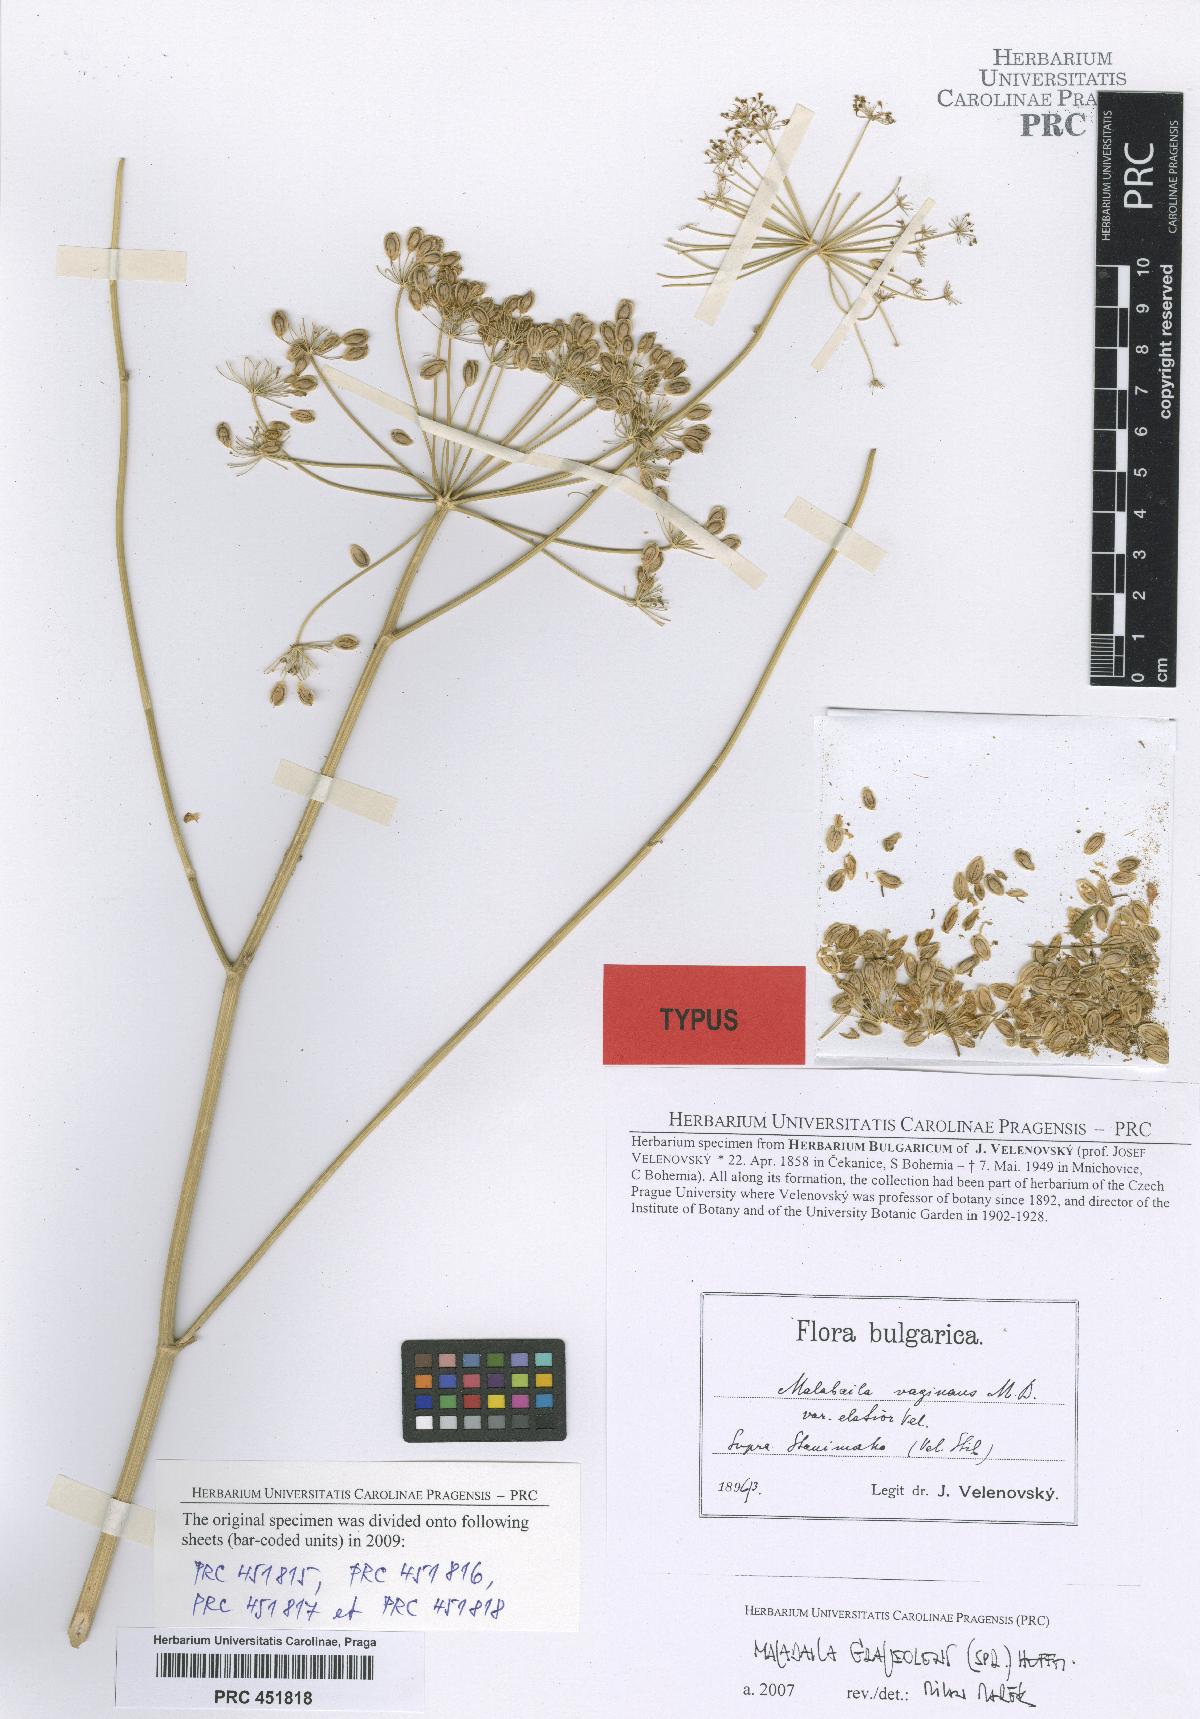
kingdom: Plantae
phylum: Tracheophyta
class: Magnoliopsida
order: Apiales
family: Apiaceae
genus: Pastinaca
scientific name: Pastinaca clausii
